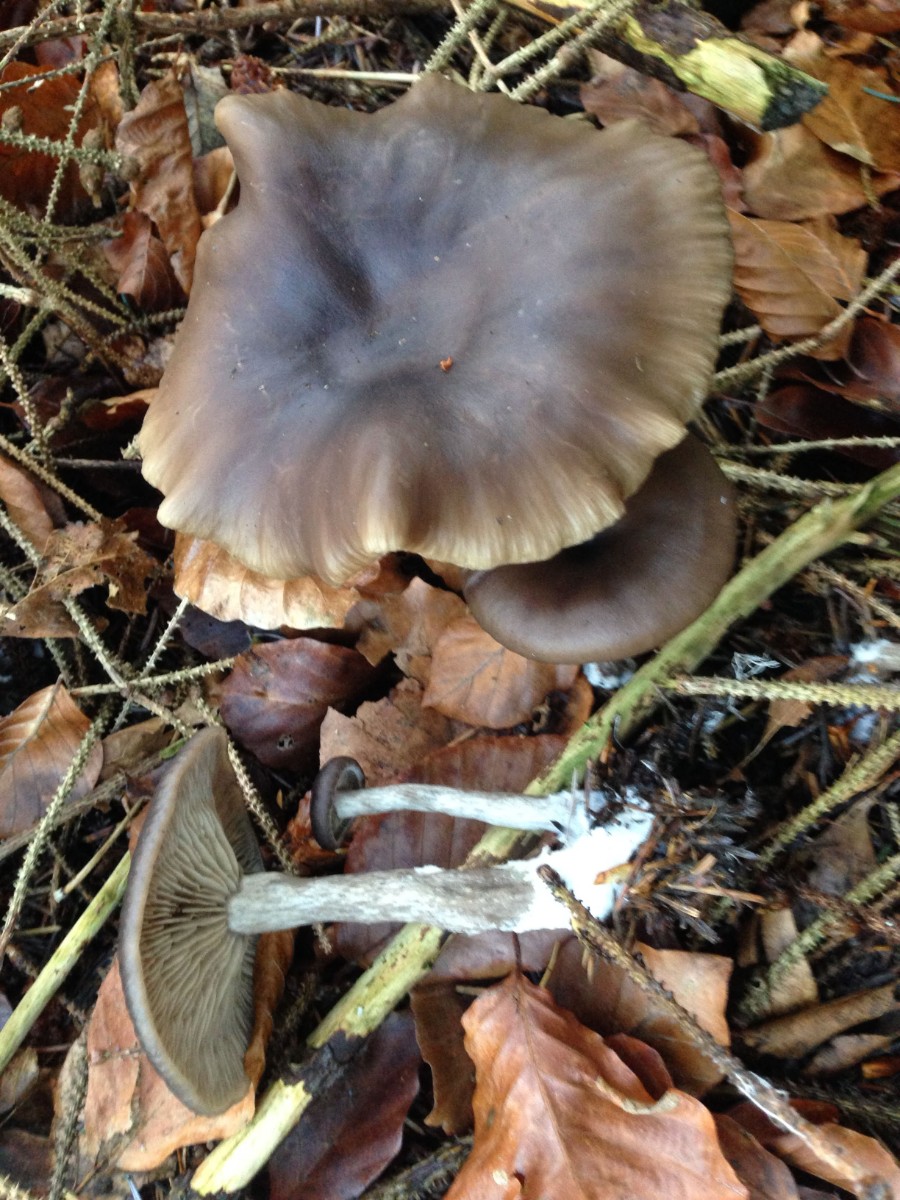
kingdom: Fungi
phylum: Basidiomycota
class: Agaricomycetes
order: Agaricales
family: Pseudoclitocybaceae
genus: Pseudoclitocybe
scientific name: Pseudoclitocybe cyathiformis
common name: almindelig bægertragthat
